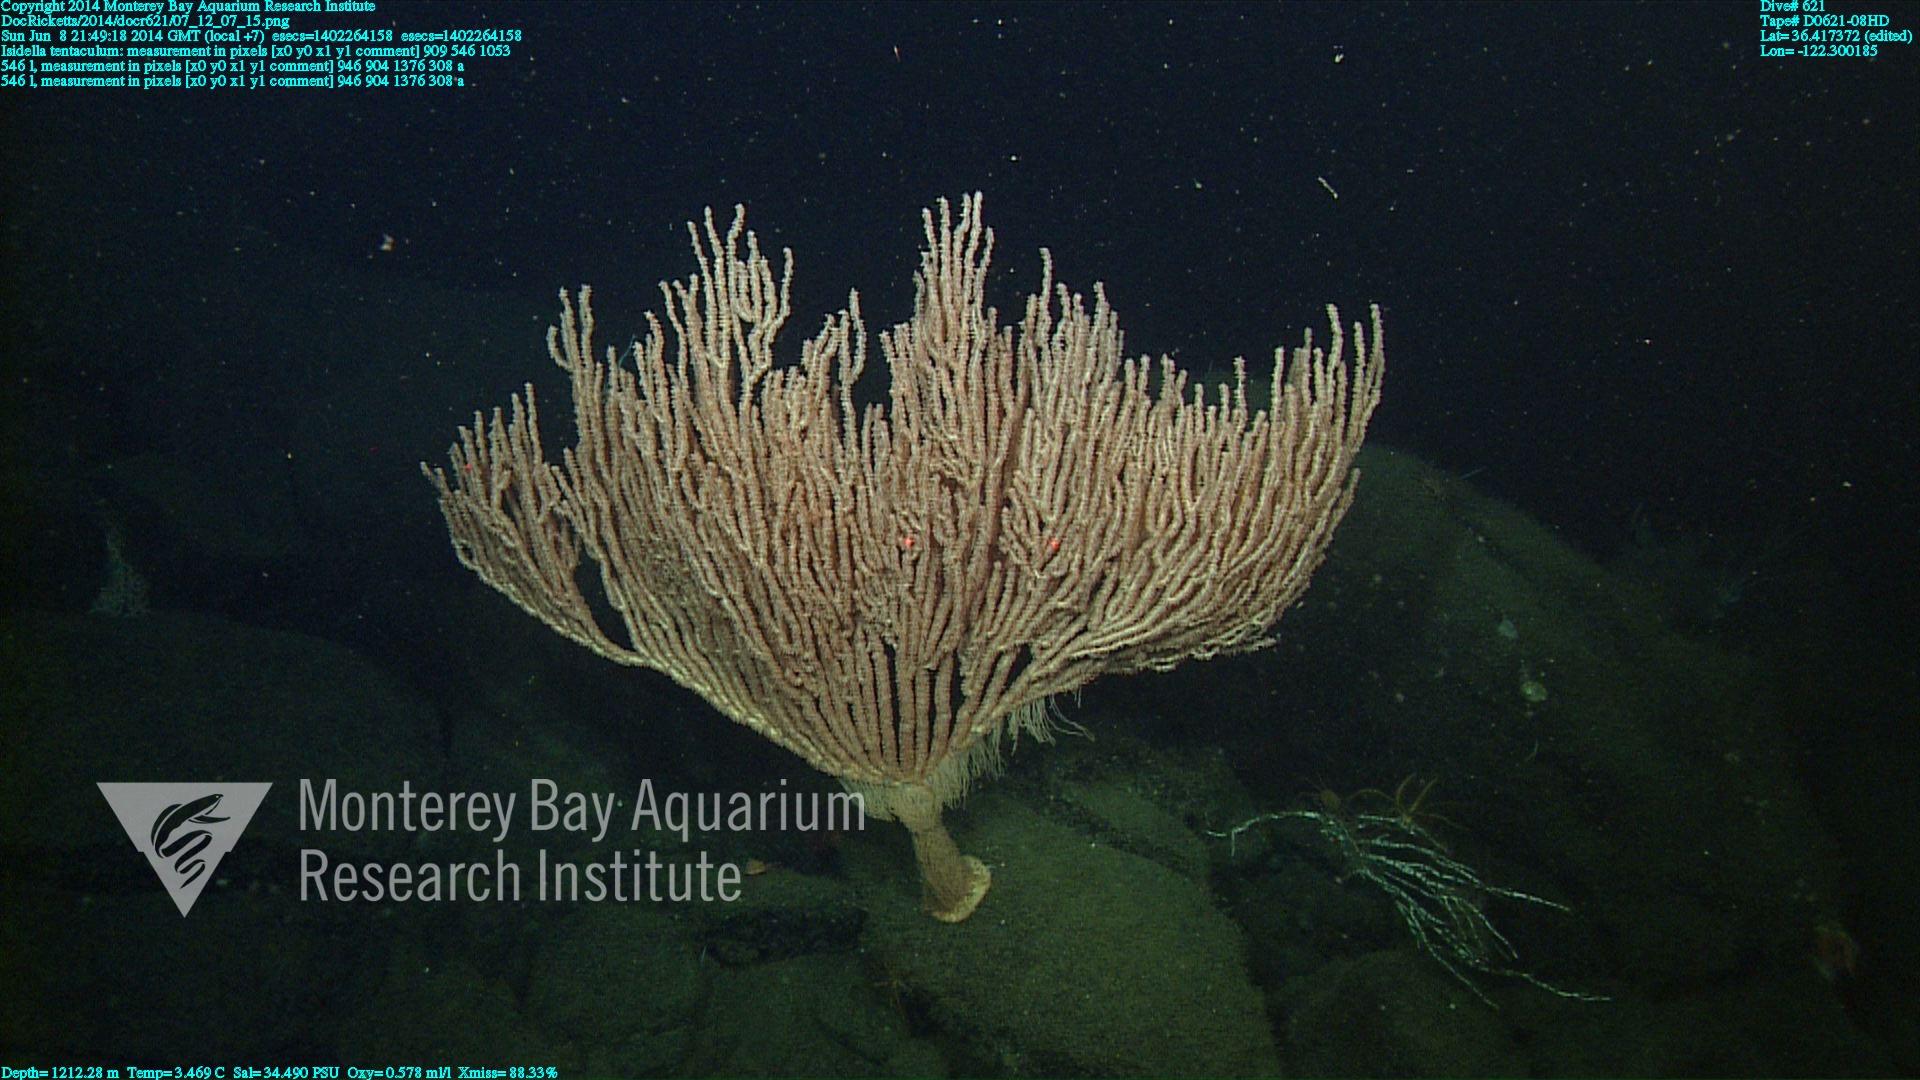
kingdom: Animalia
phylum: Cnidaria
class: Anthozoa
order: Scleralcyonacea
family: Keratoisididae
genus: Isidella
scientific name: Isidella tentaculum
